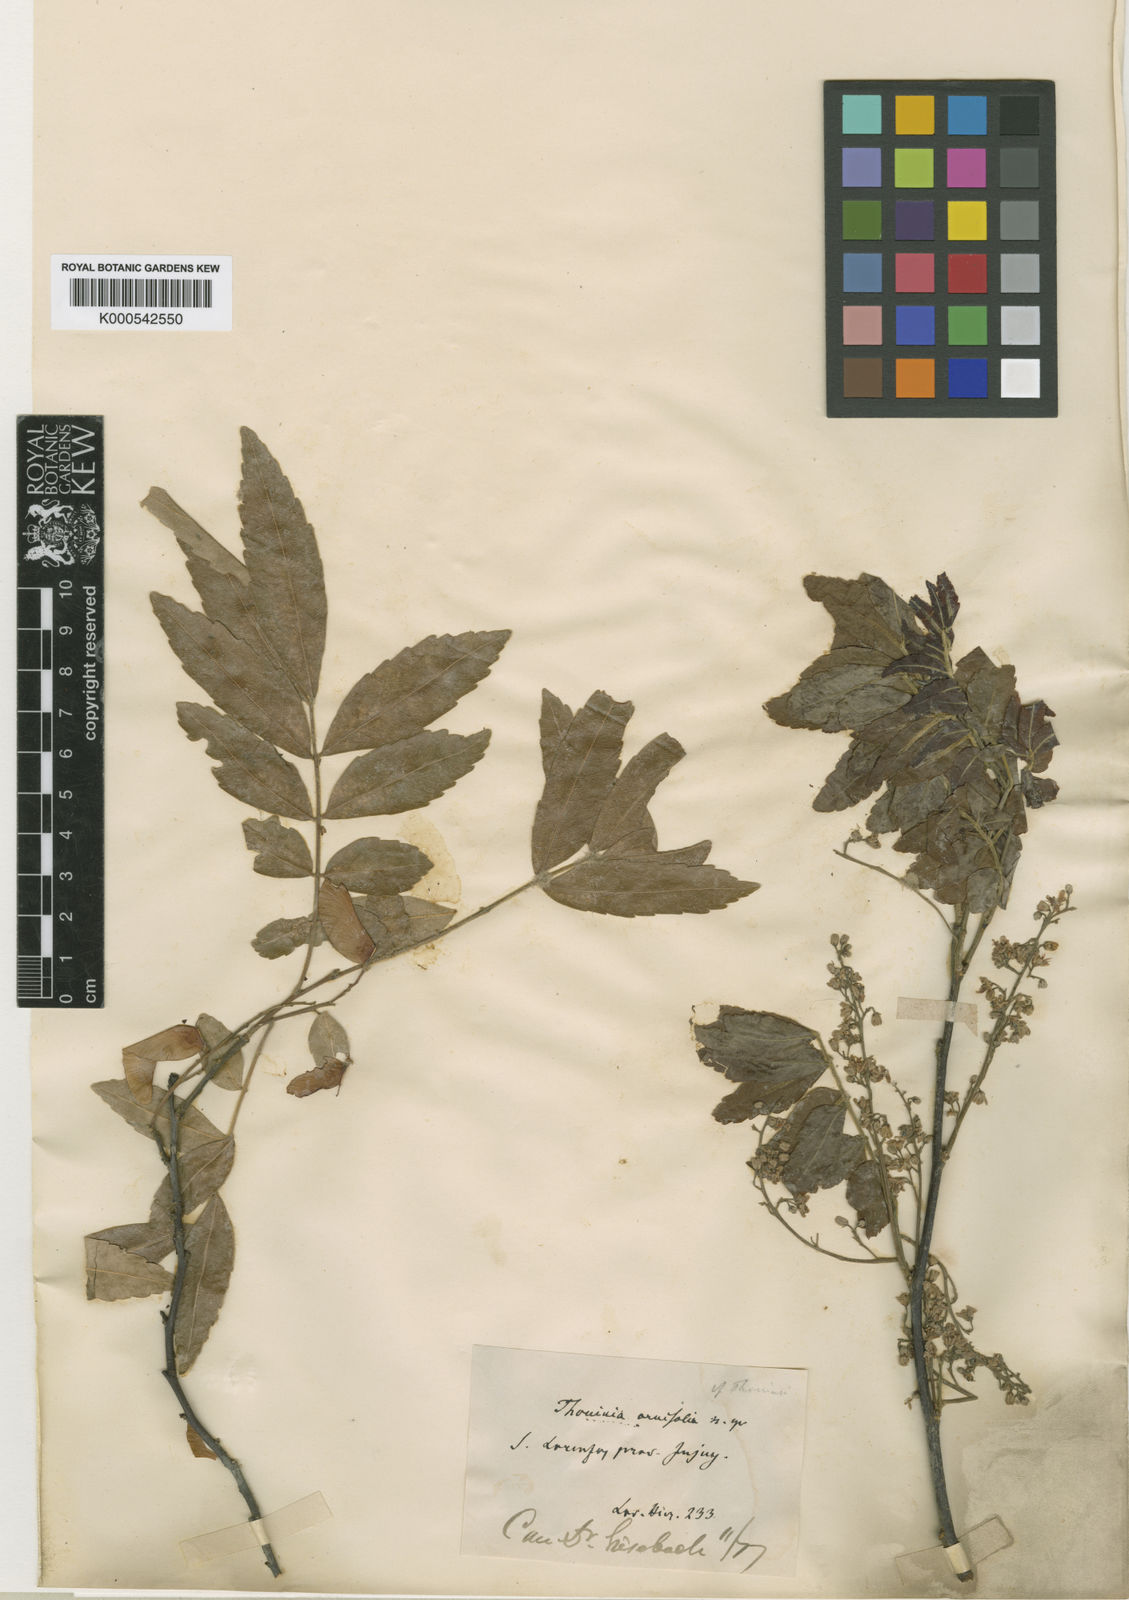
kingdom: Plantae
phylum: Tracheophyta
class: Magnoliopsida
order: Sapindales
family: Sapindaceae
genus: Diatenopteryx
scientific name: Diatenopteryx sorbifolia
